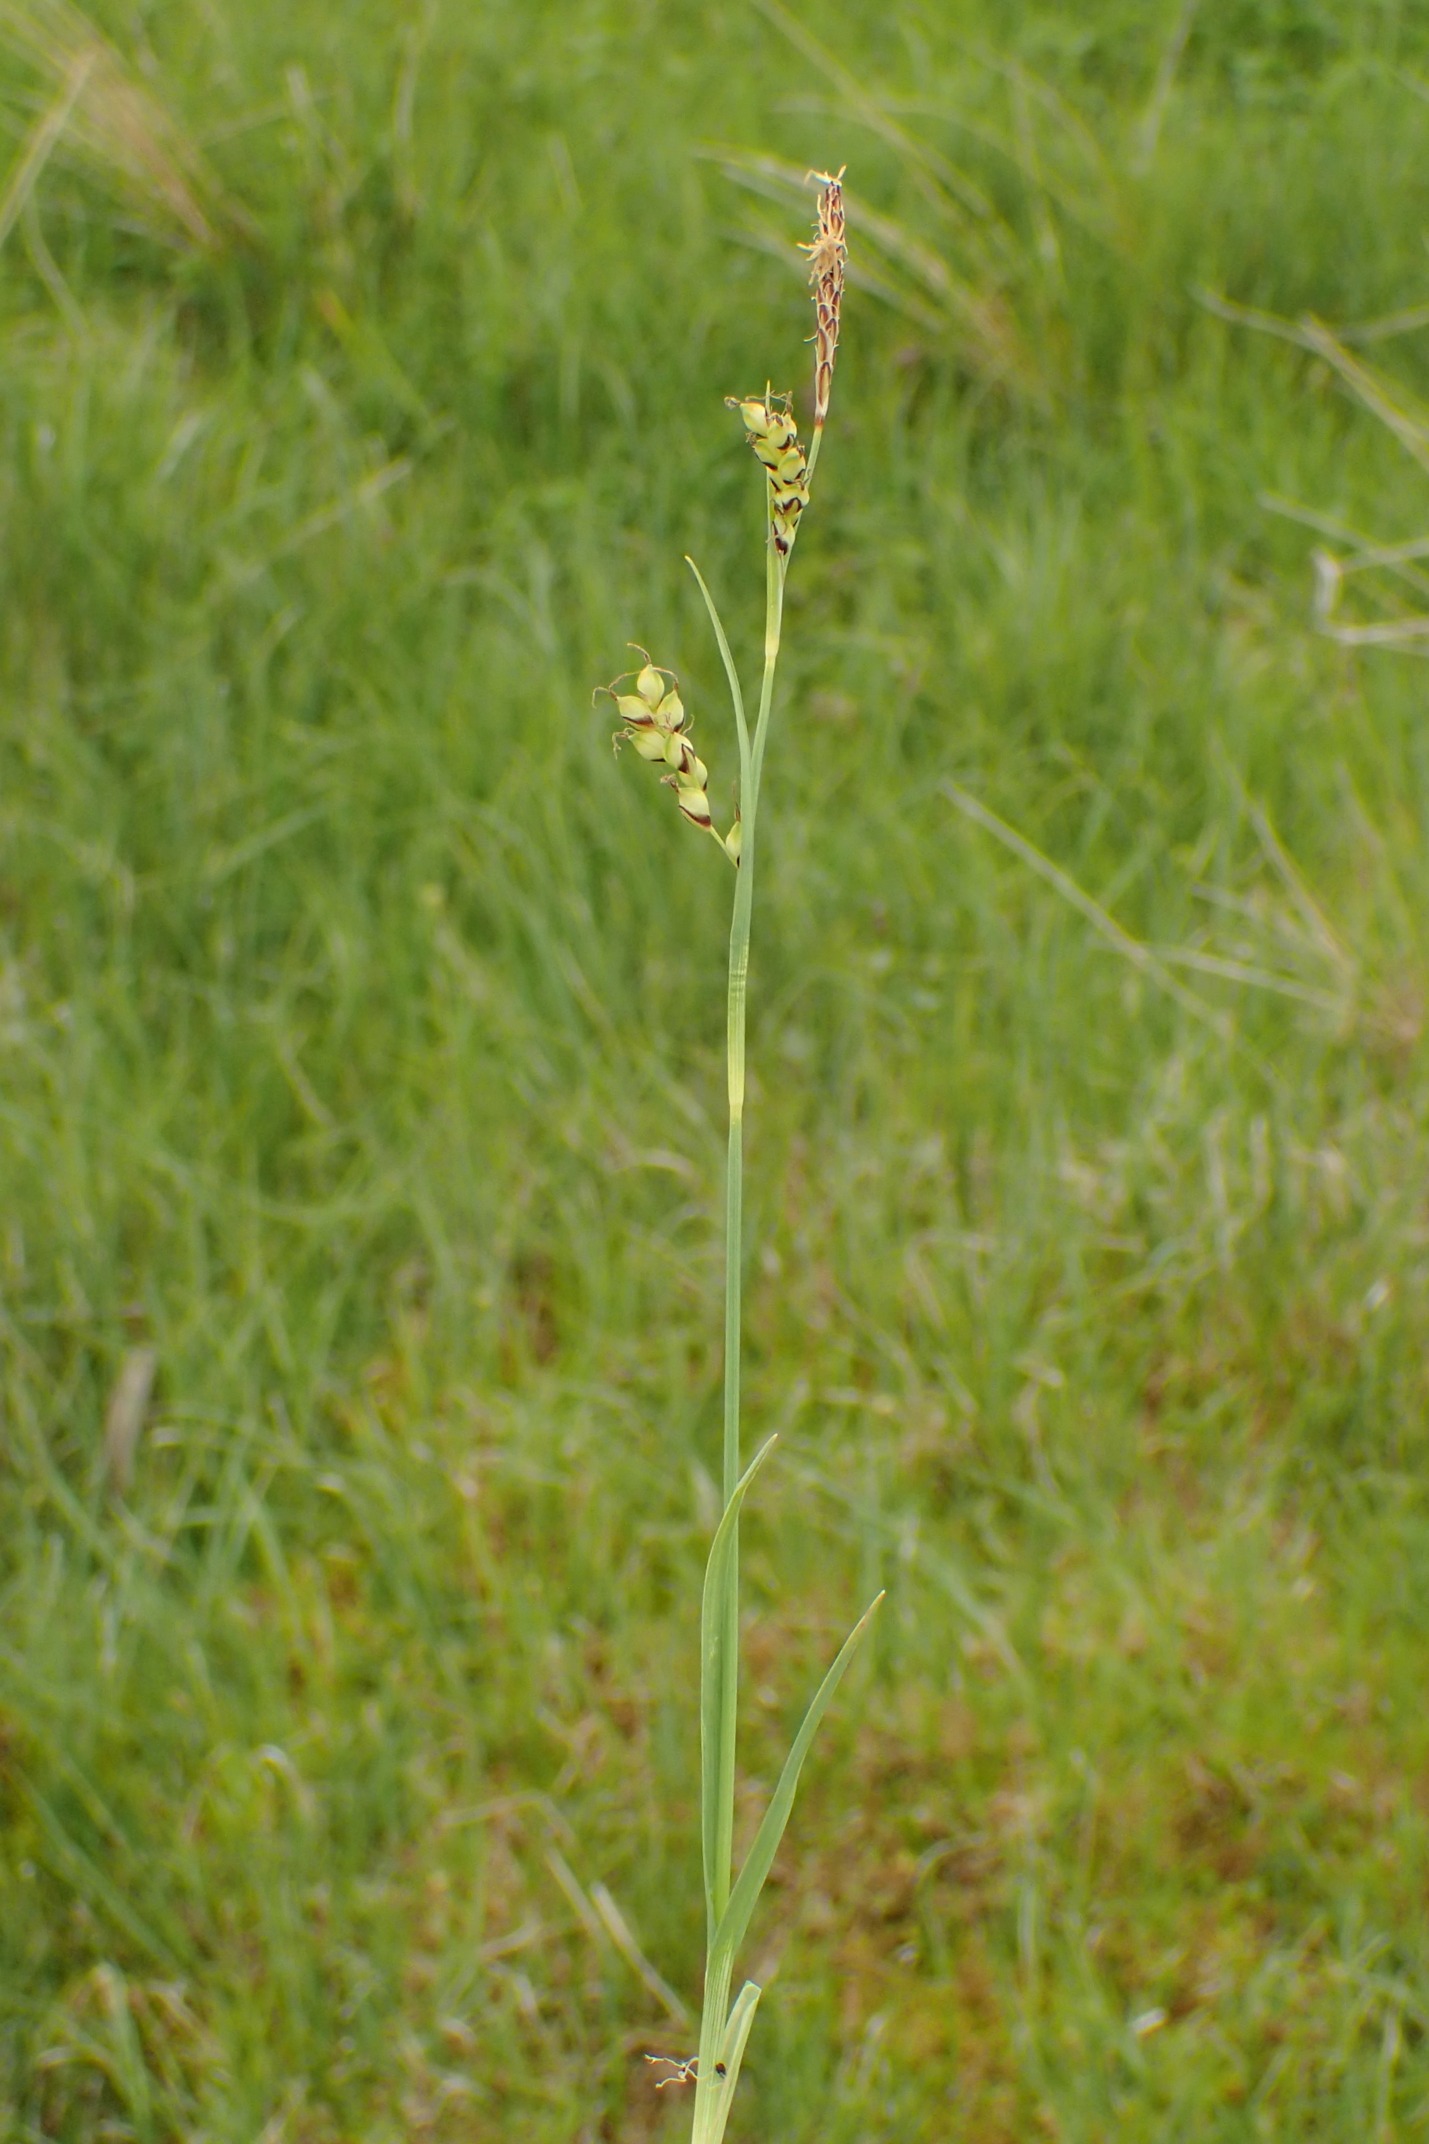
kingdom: Plantae
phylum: Tracheophyta
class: Liliopsida
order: Poales
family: Cyperaceae
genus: Carex
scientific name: Carex panicea
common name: Hirse-star
